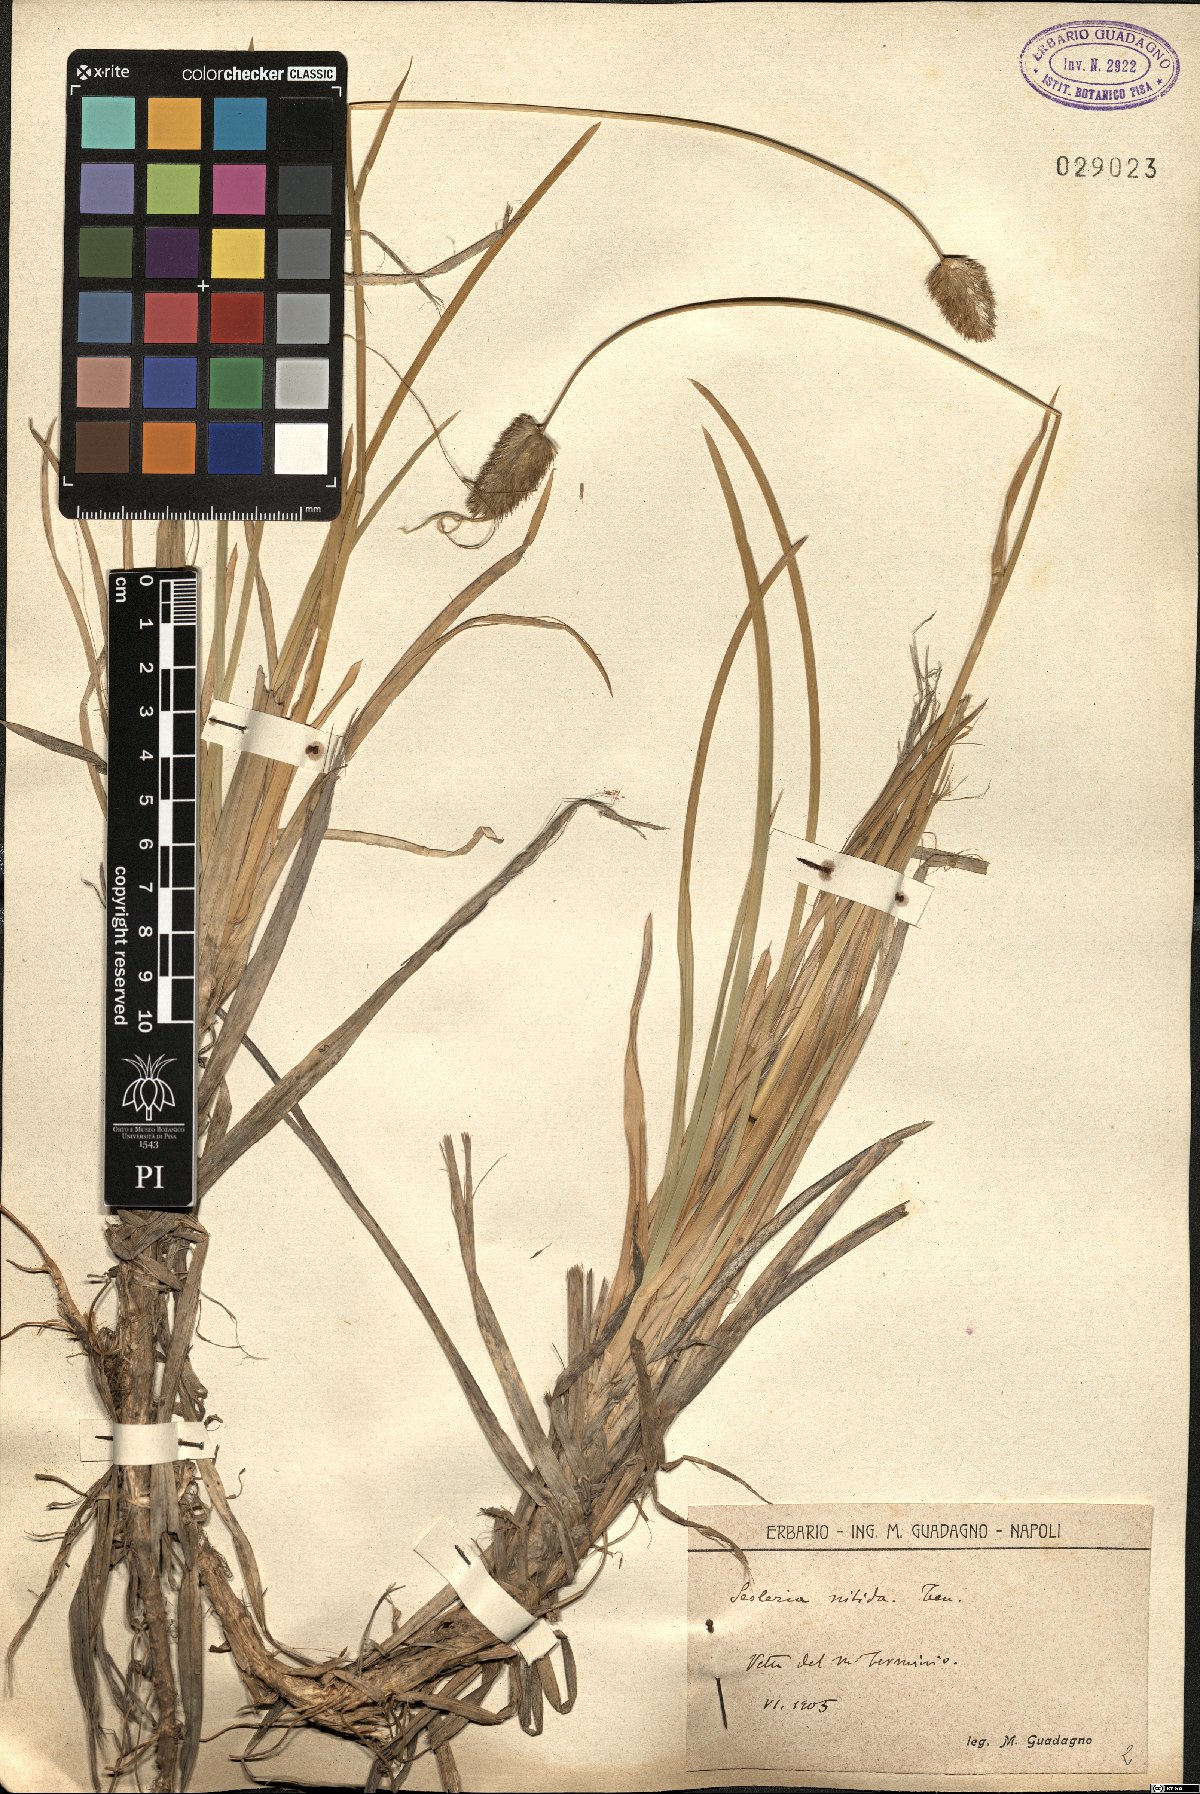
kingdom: Plantae
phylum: Tracheophyta
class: Liliopsida
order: Poales
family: Poaceae
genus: Sesleria
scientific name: Sesleria nitida
